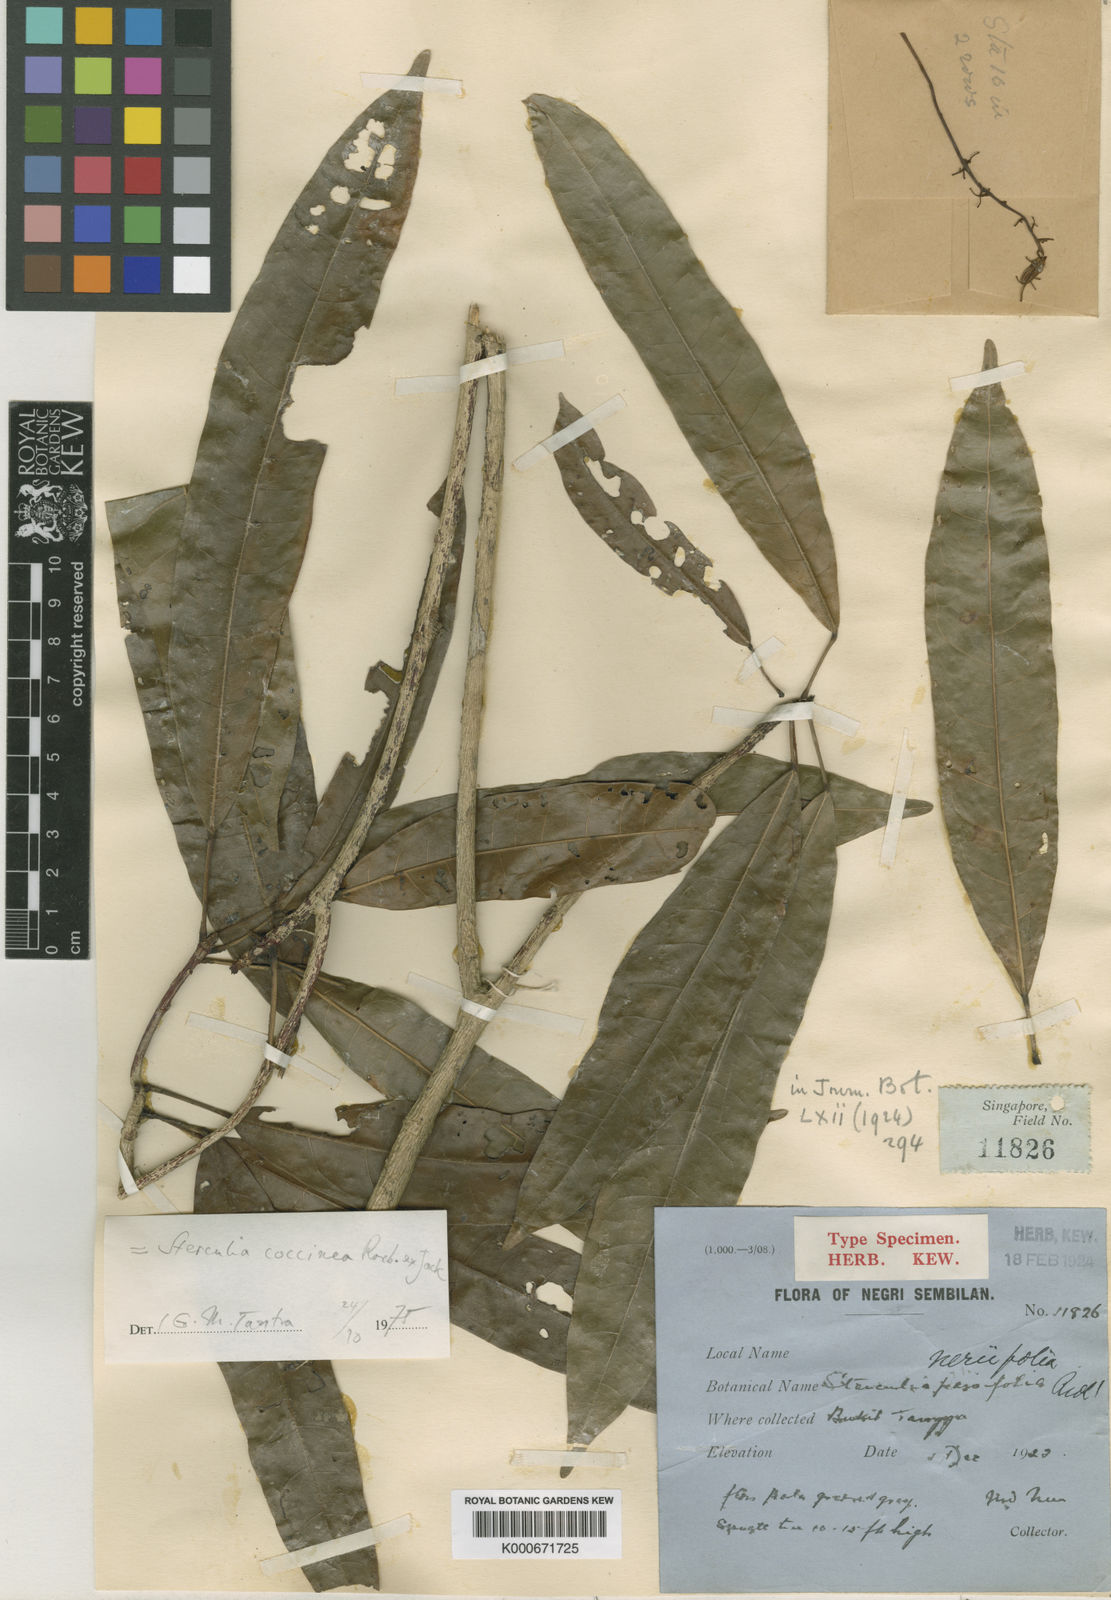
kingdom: Plantae
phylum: Tracheophyta
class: Magnoliopsida
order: Malvales
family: Malvaceae
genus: Sterculia
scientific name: Sterculia
